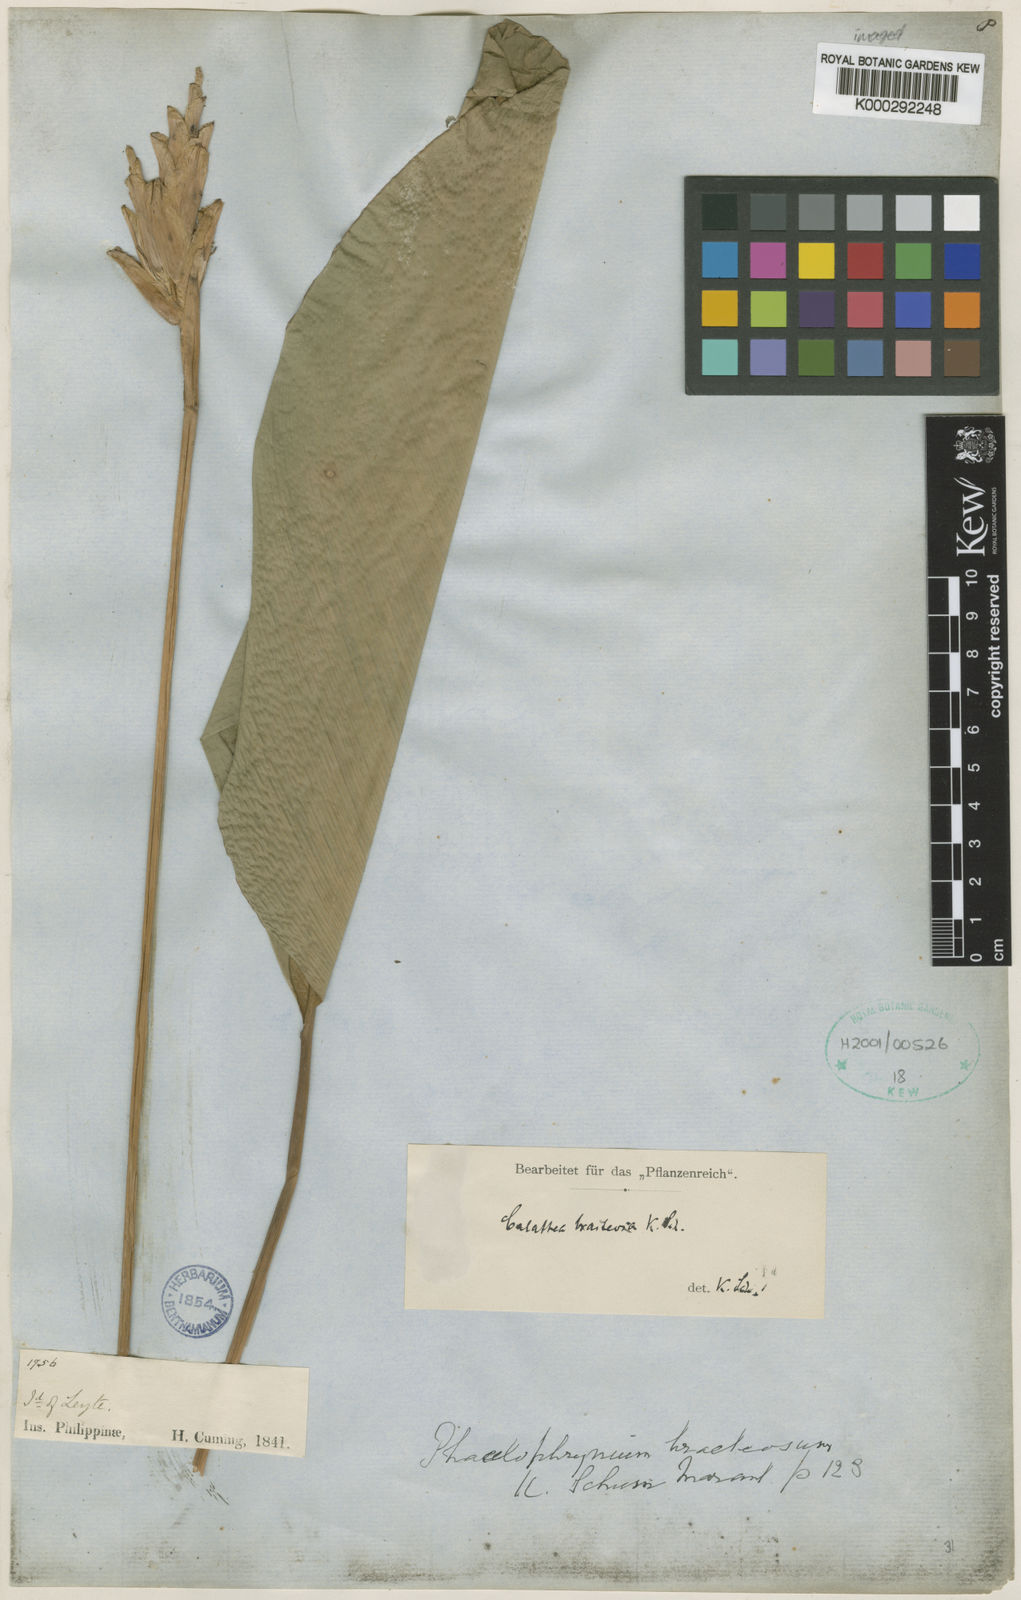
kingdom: Plantae
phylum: Tracheophyta
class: Liliopsida
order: Zingiberales
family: Marantaceae
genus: Phrynium
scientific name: Phrynium maximum
